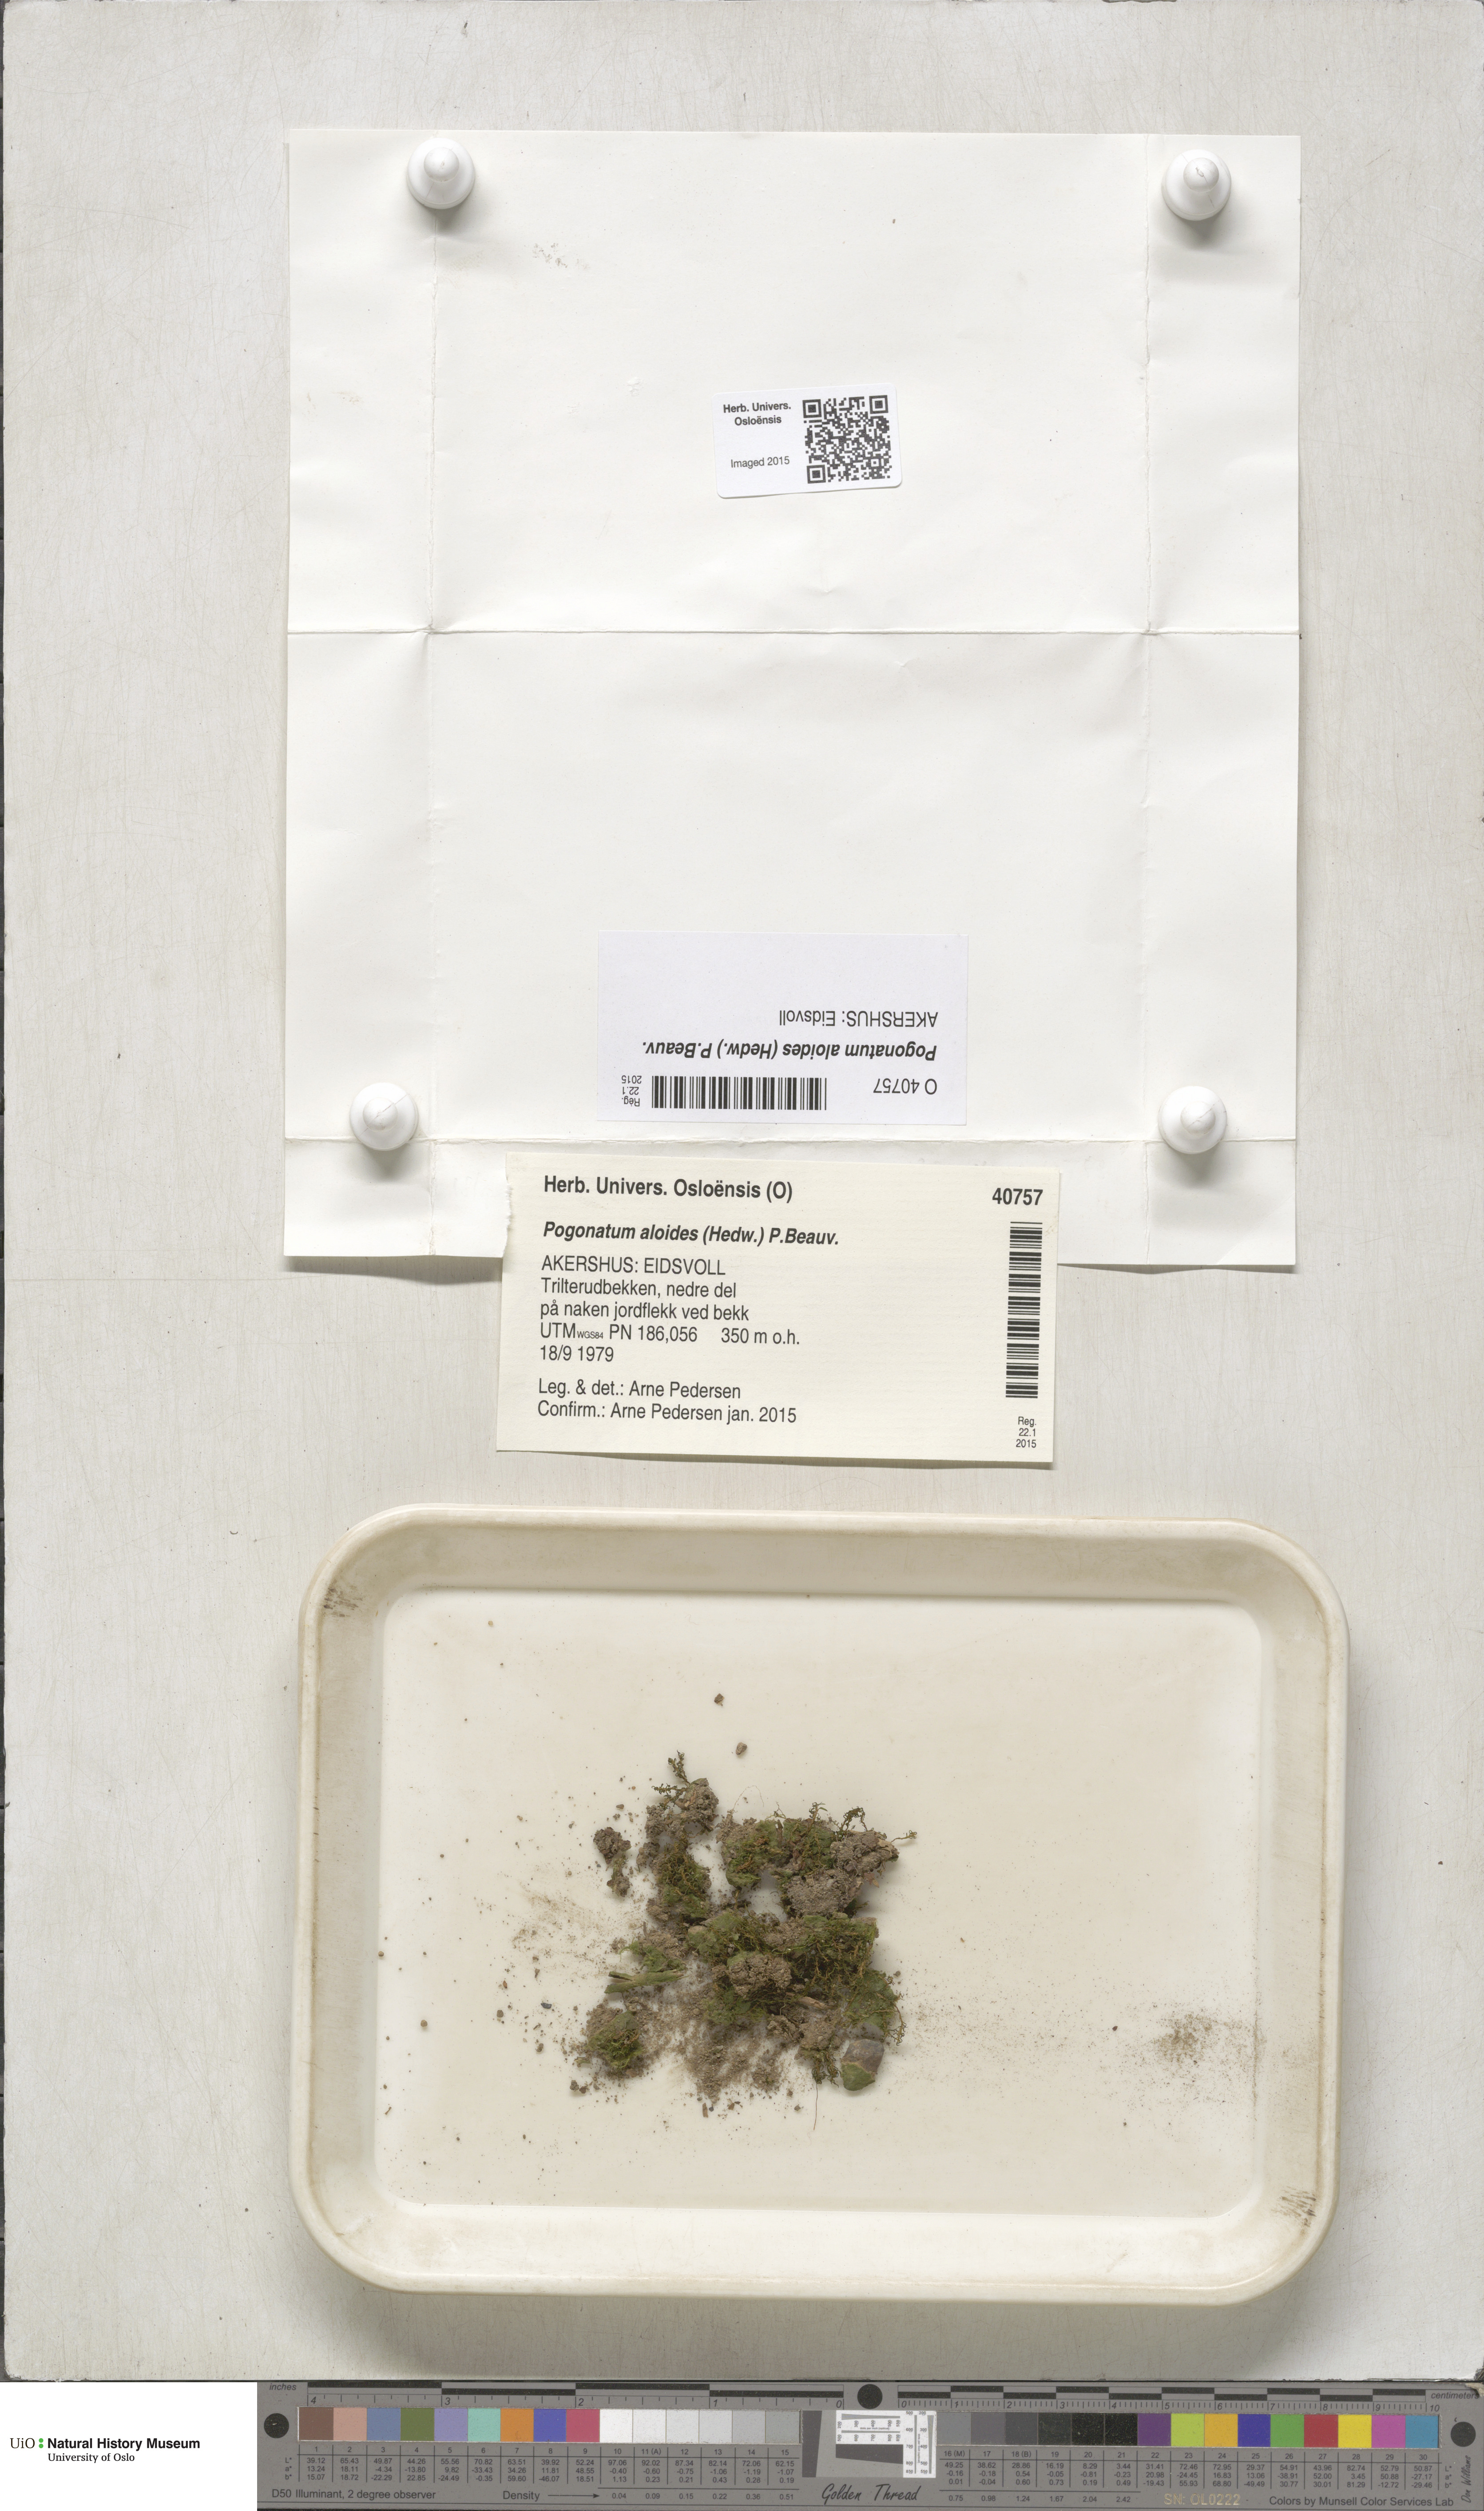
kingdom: Plantae
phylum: Bryophyta
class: Polytrichopsida
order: Polytrichales
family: Polytrichaceae
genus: Pogonatum
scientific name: Pogonatum aloides
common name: Aloe haircap
